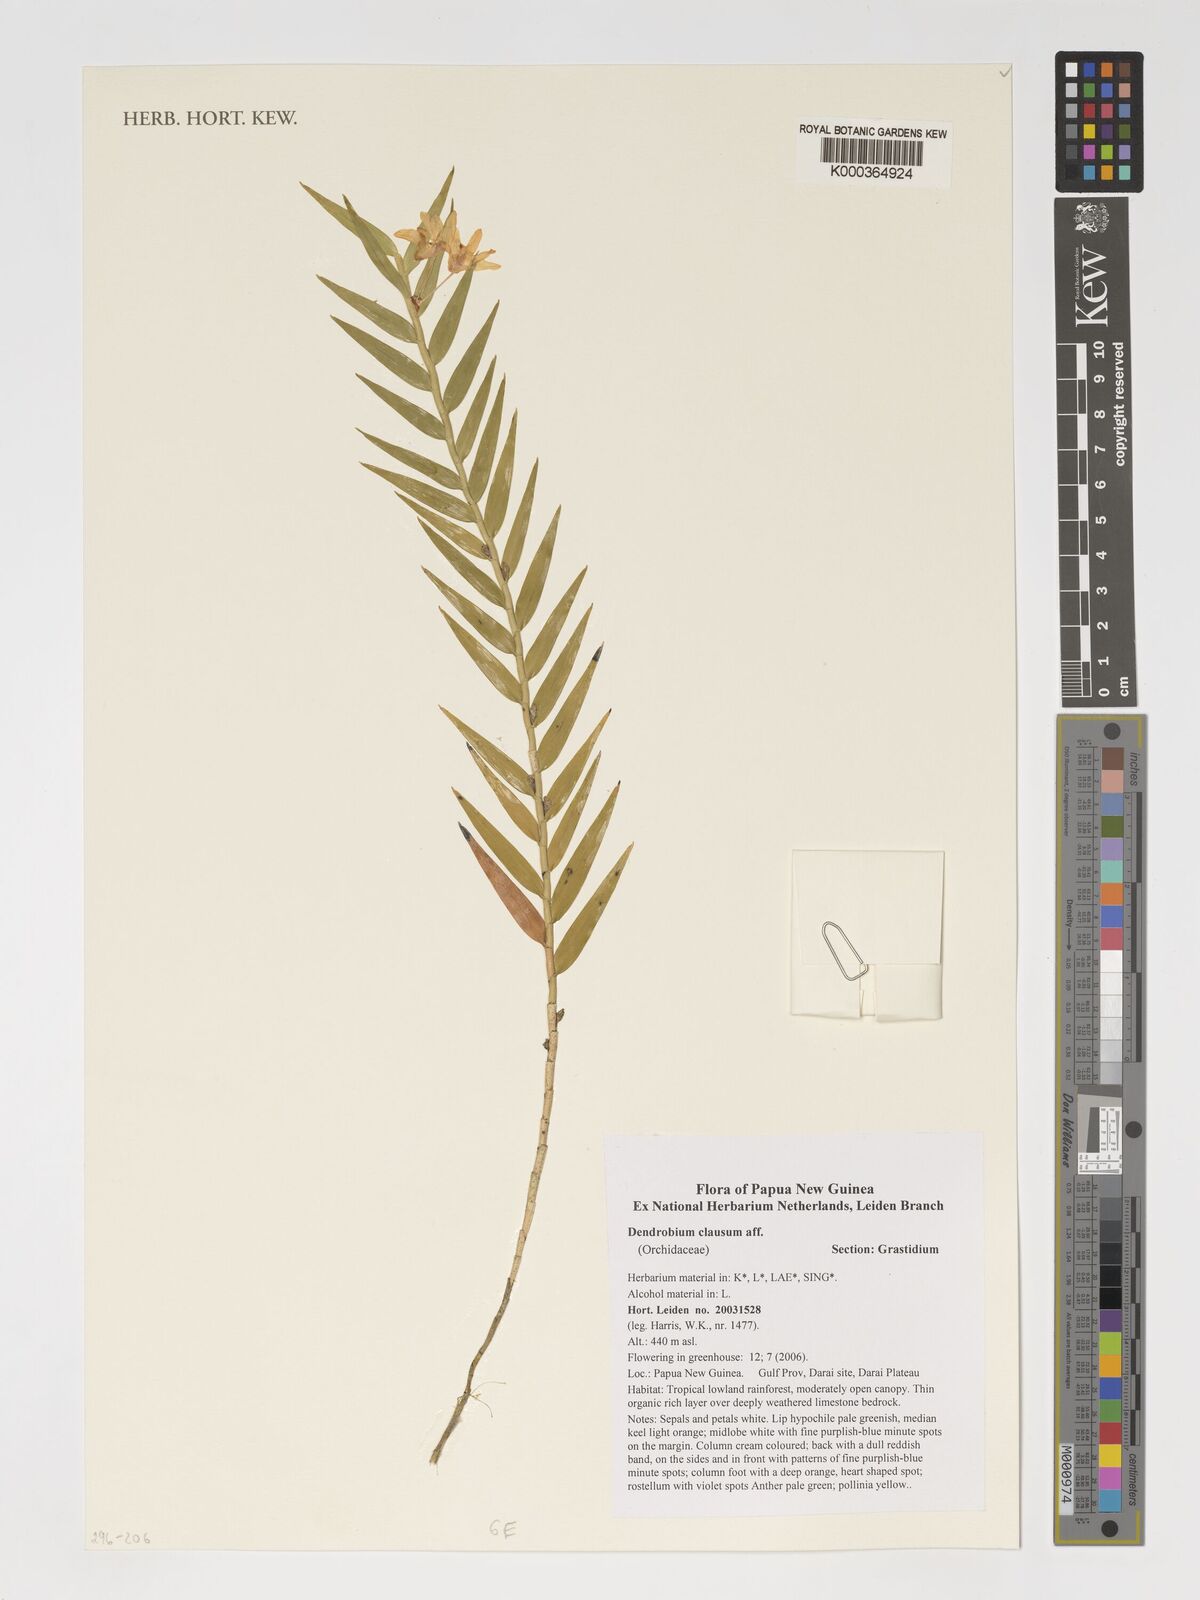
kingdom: Plantae
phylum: Tracheophyta
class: Liliopsida
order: Asparagales
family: Orchidaceae
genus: Dendrobium
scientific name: Dendrobium clausum
